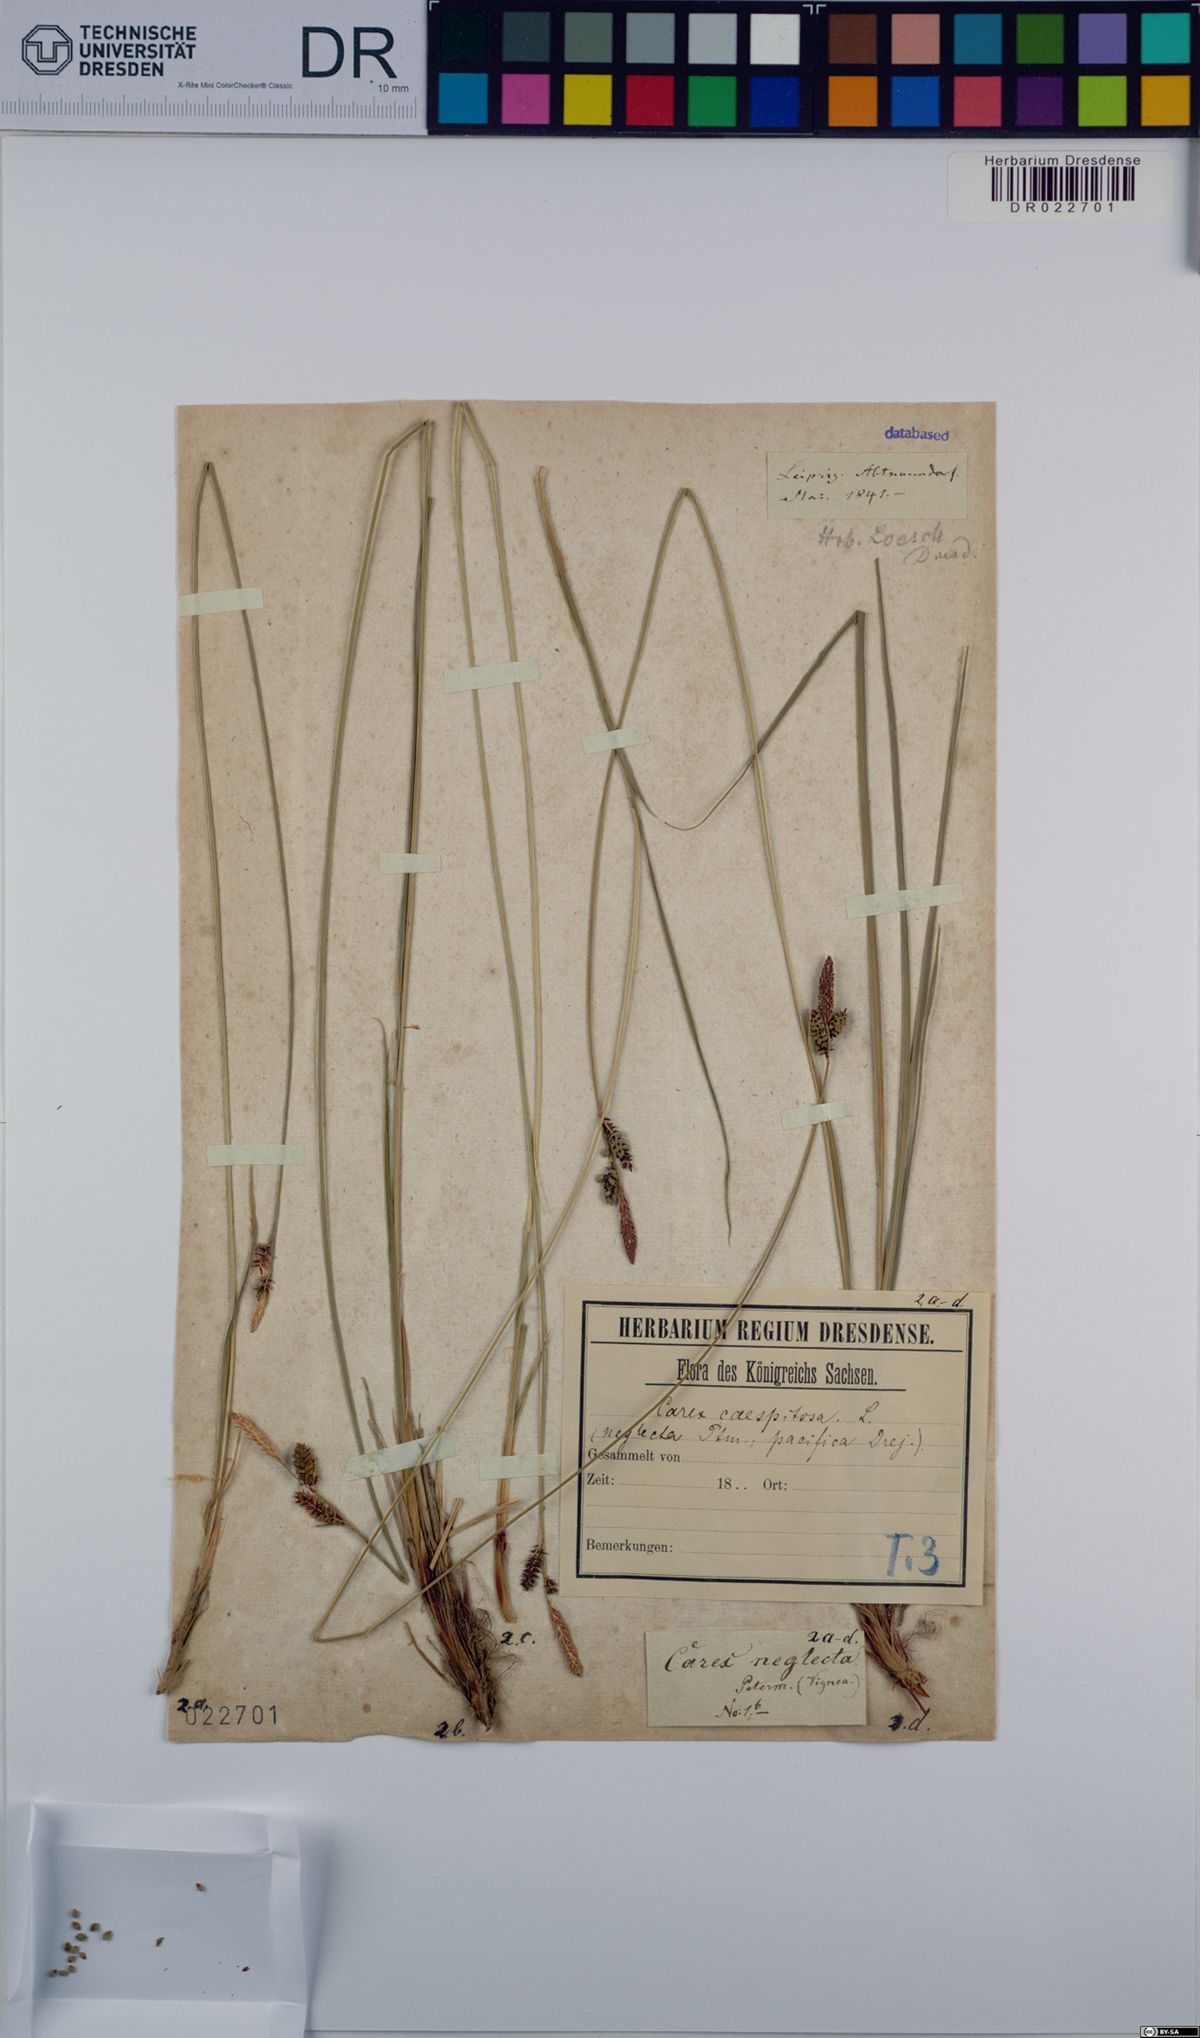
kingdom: Plantae
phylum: Tracheophyta
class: Liliopsida
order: Poales
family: Cyperaceae
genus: Carex
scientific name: Carex cespitosa
